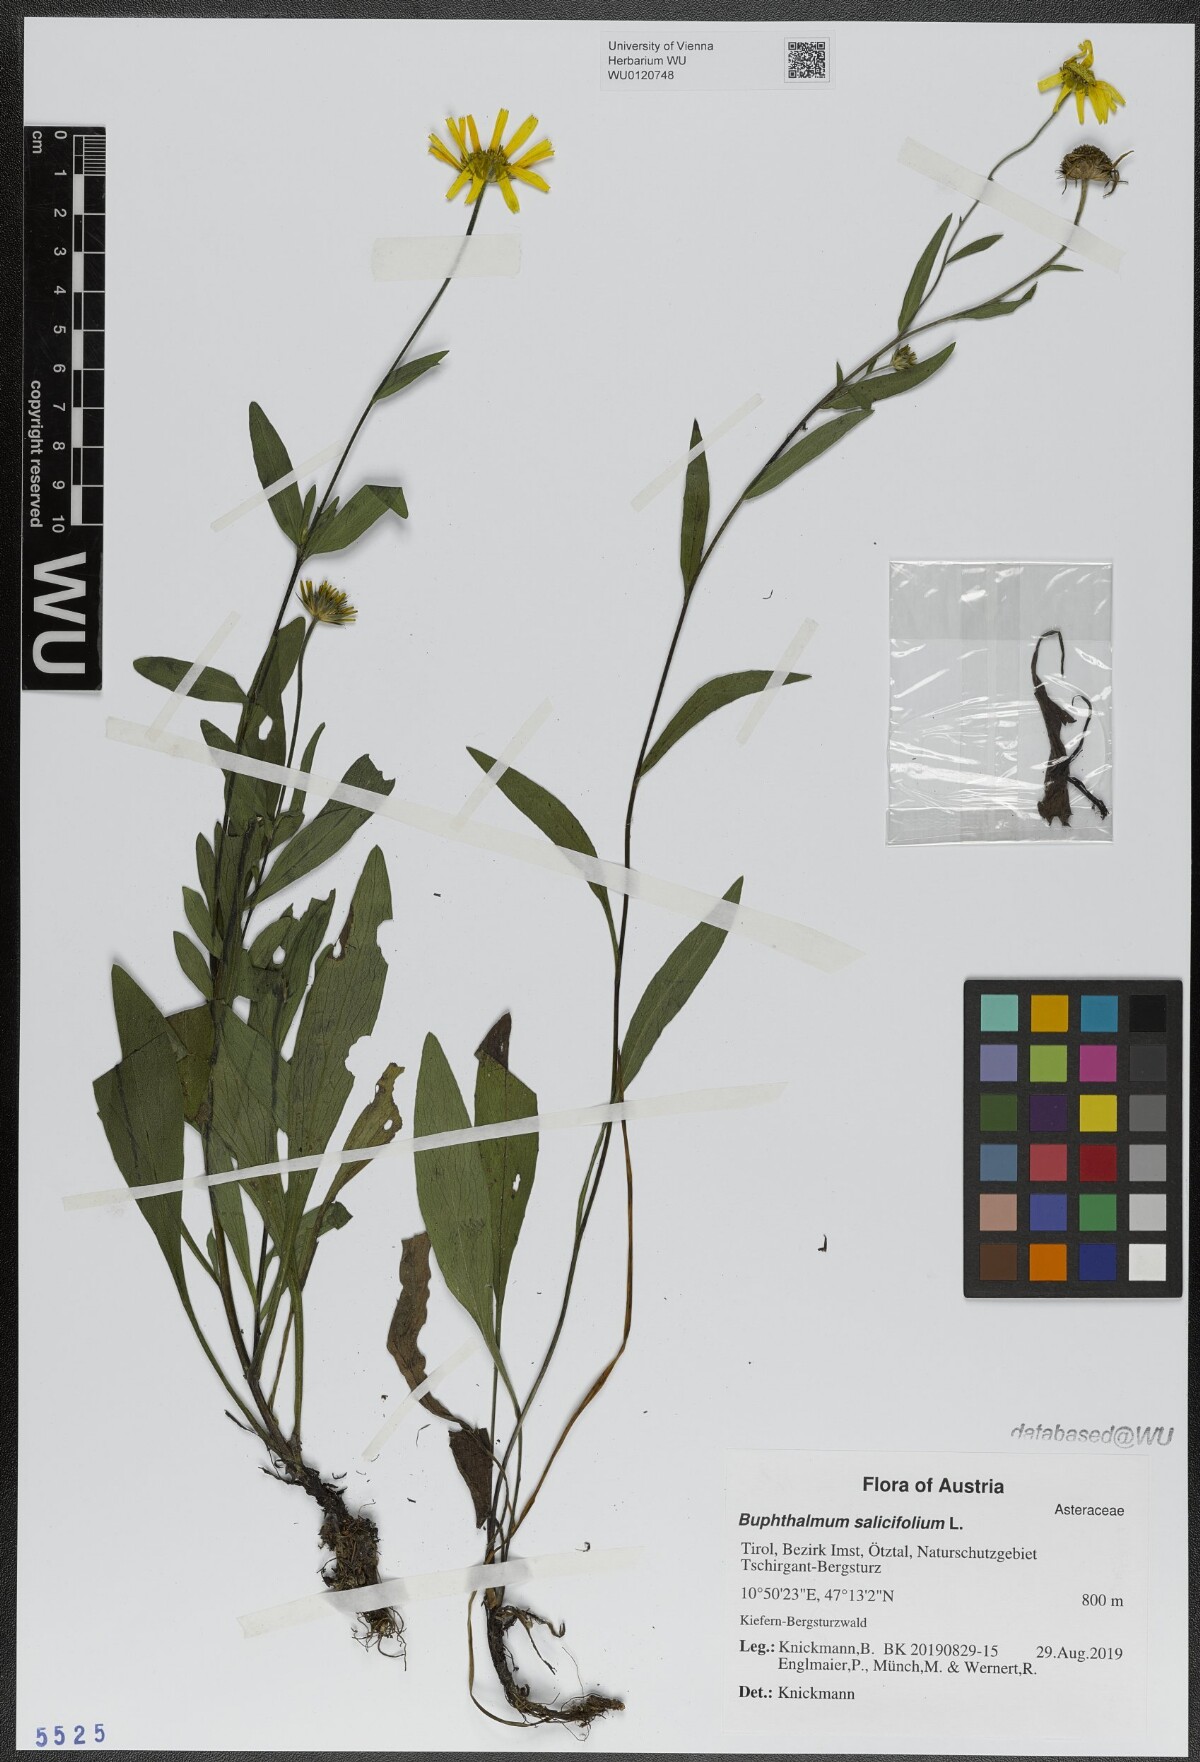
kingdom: Plantae
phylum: Tracheophyta
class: Magnoliopsida
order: Asterales
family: Asteraceae
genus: Buphthalmum
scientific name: Buphthalmum salicifolium
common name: Willow-leaved yellow-oxeye
